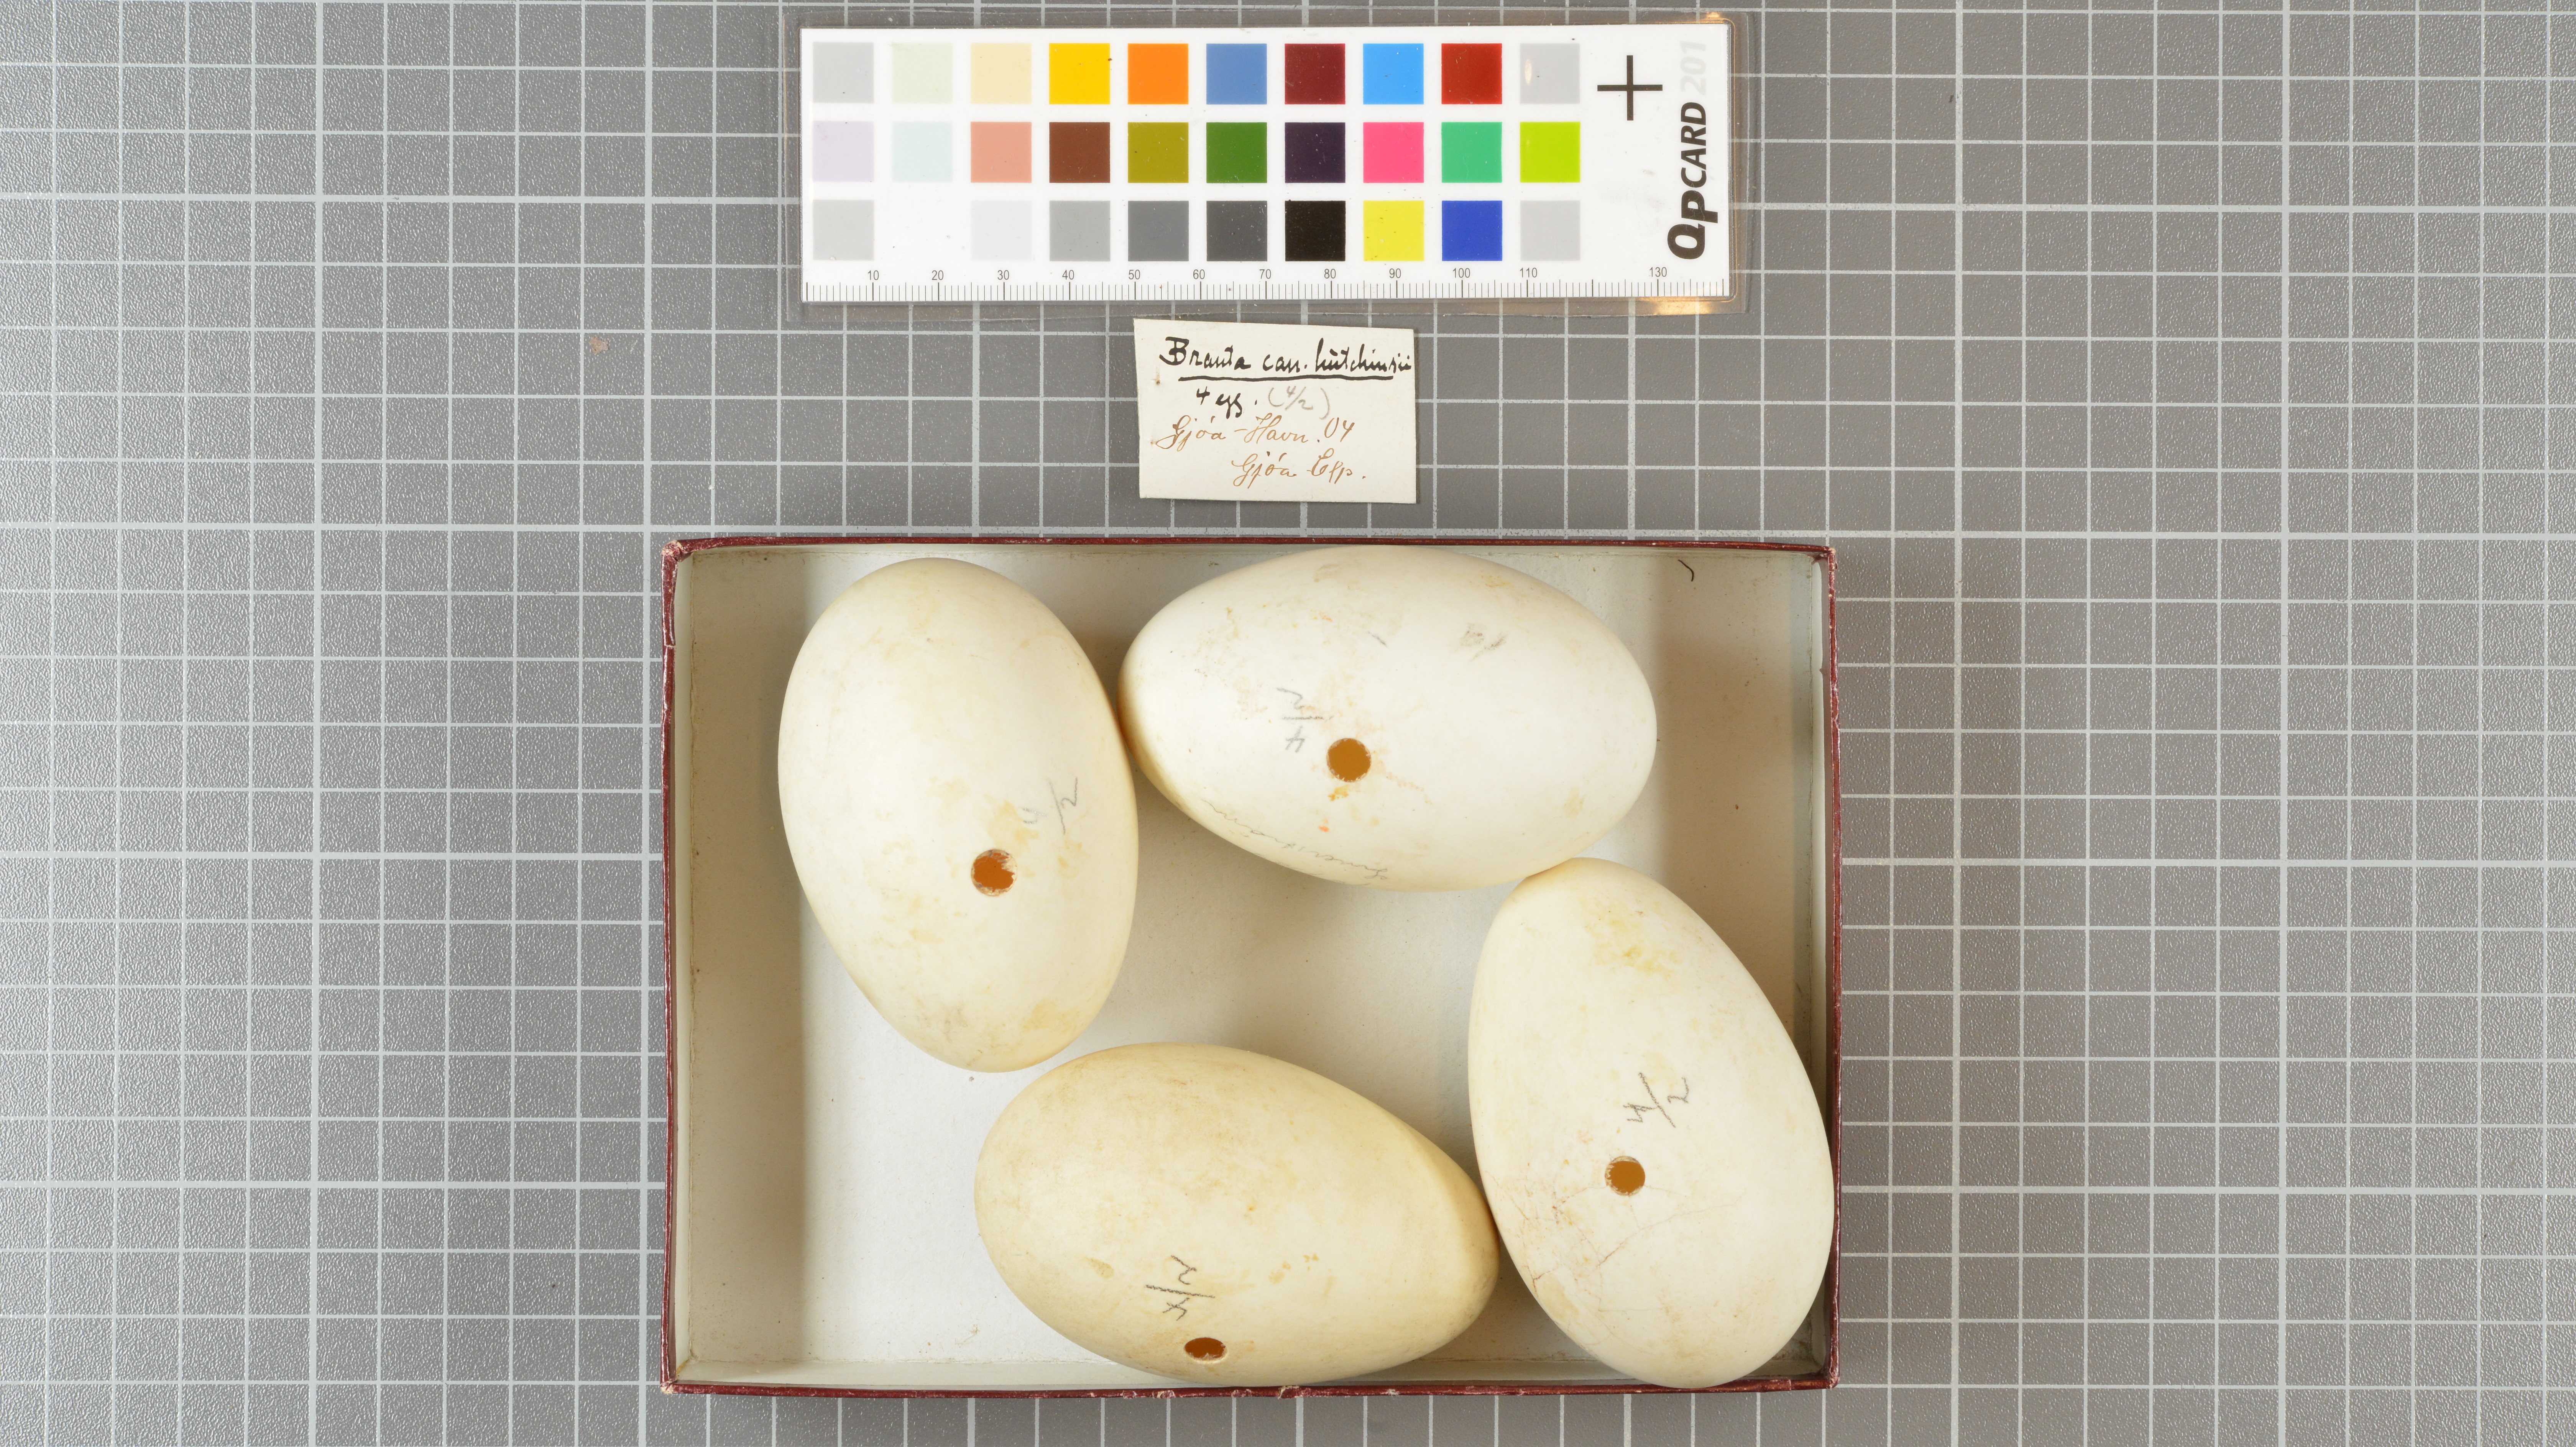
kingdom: Animalia
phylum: Chordata
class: Aves
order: Anseriformes
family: Anatidae
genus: Branta
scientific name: Branta hutchinsii
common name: Cackling goose
